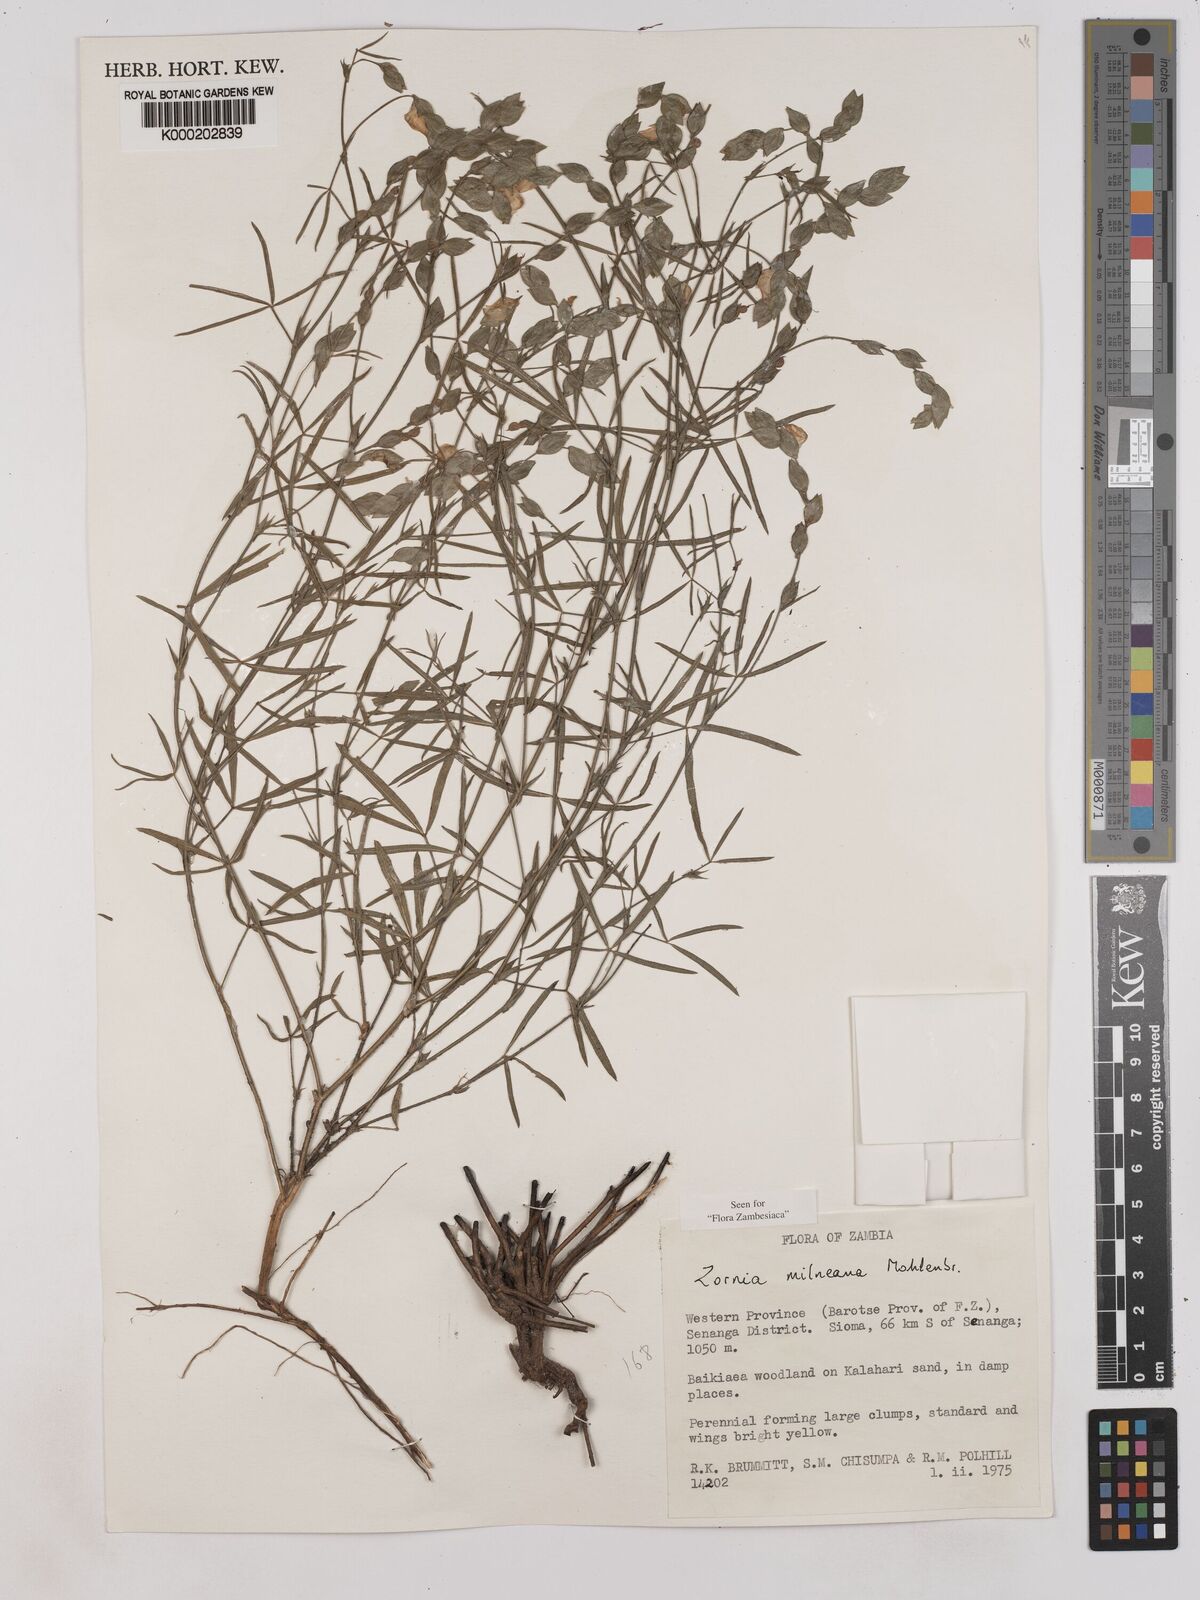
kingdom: Plantae
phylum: Tracheophyta
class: Magnoliopsida
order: Fabales
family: Fabaceae
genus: Zornia
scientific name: Zornia milneana
